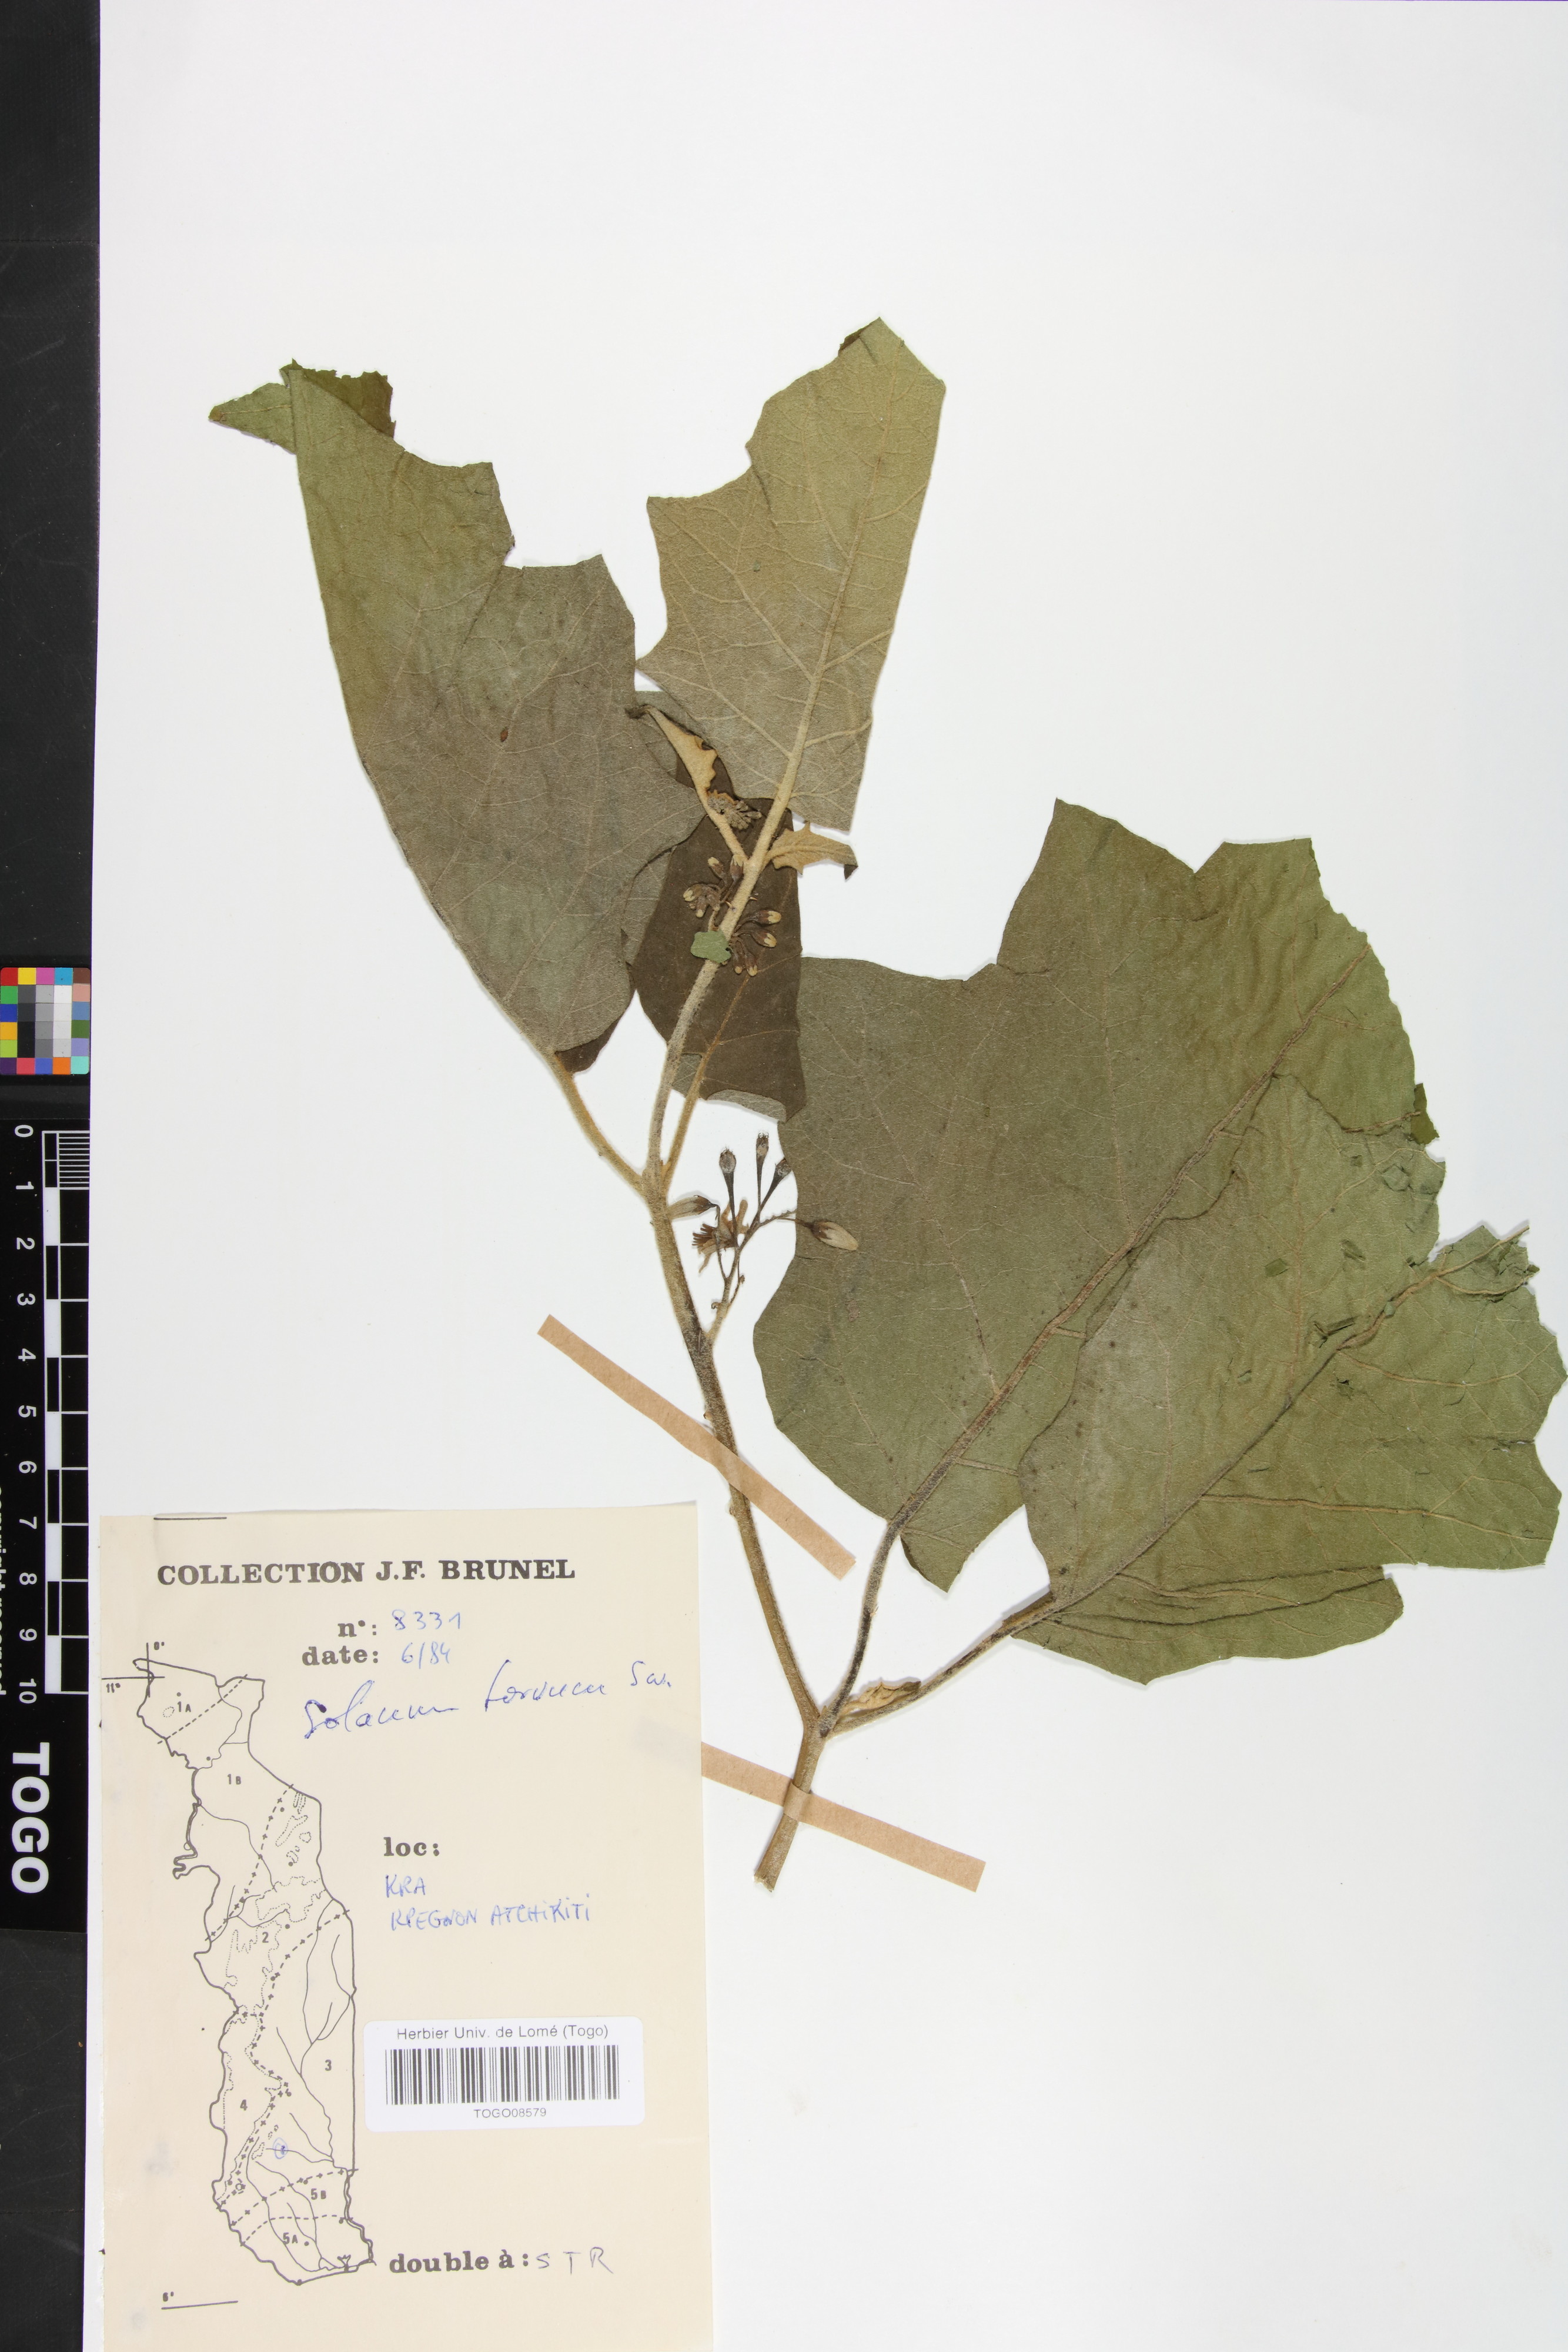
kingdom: Plantae
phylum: Tracheophyta
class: Magnoliopsida
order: Solanales
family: Solanaceae
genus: Solanum
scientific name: Solanum torvum
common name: Turkey berry
